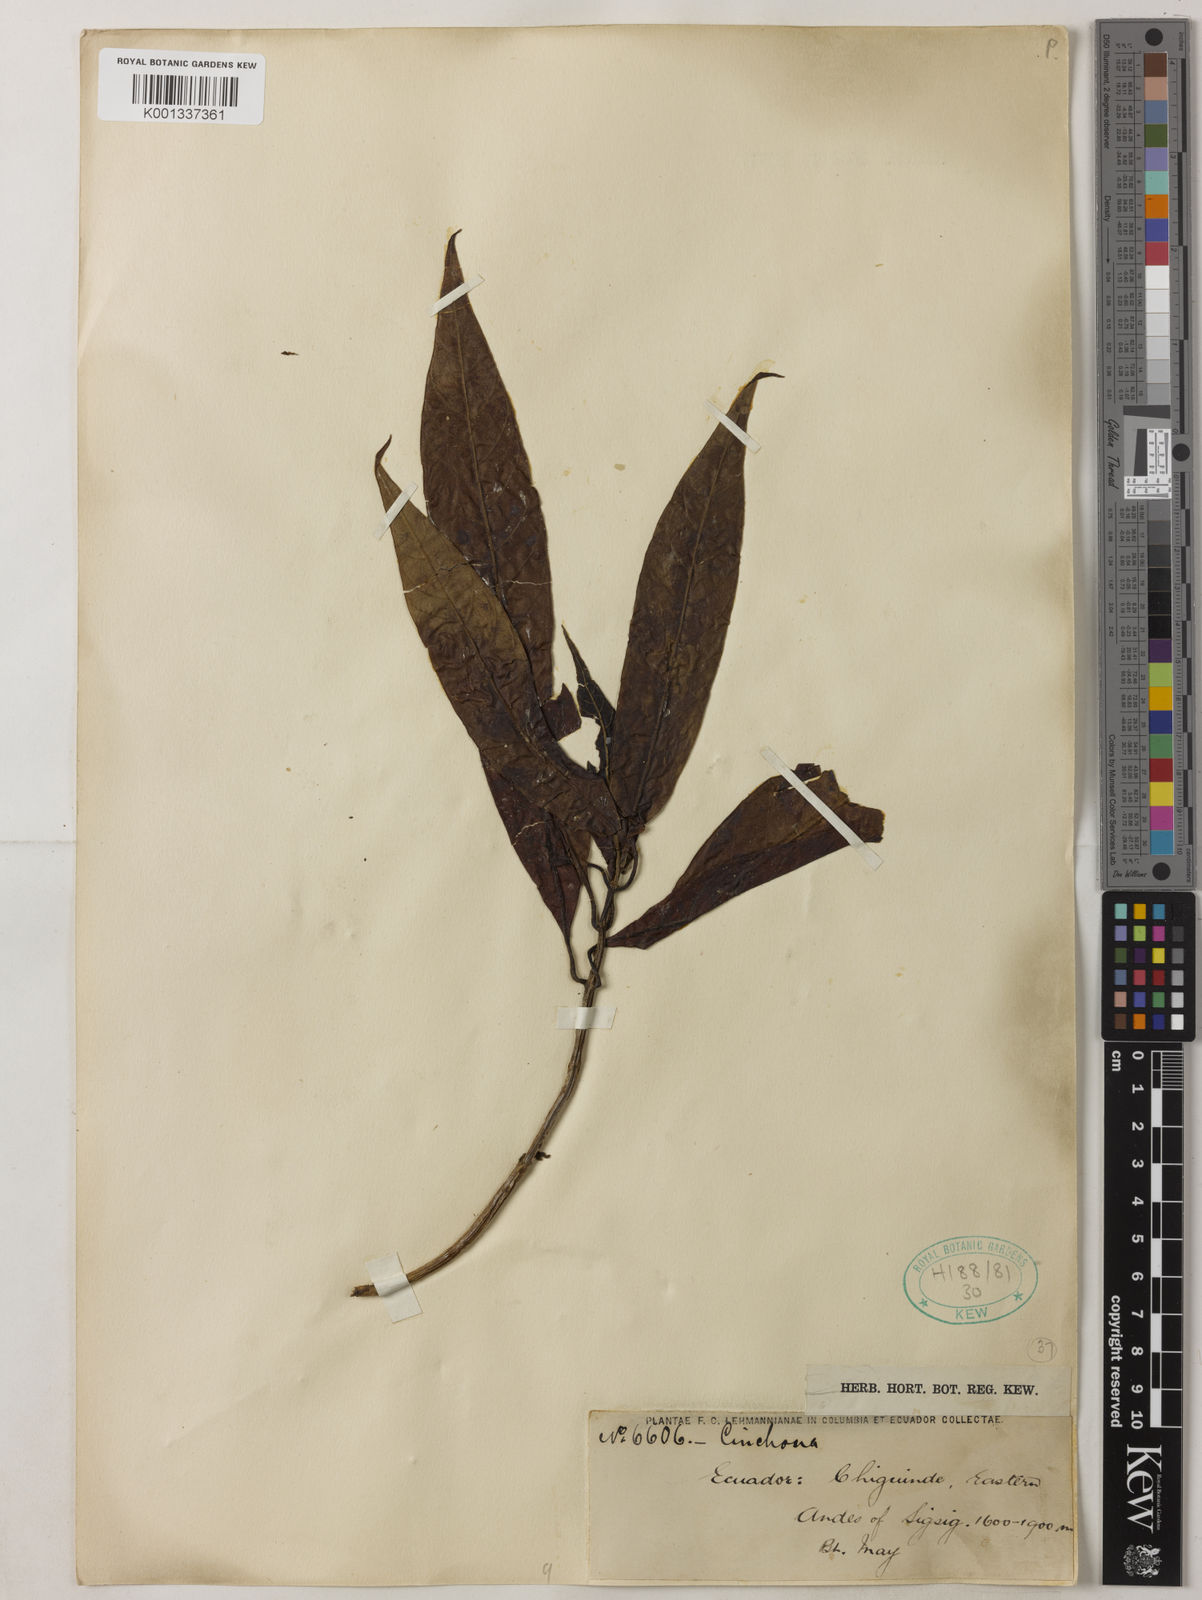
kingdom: Plantae
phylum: Tracheophyta
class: Magnoliopsida
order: Gentianales
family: Rubiaceae
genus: Cinchona
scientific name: Cinchona
